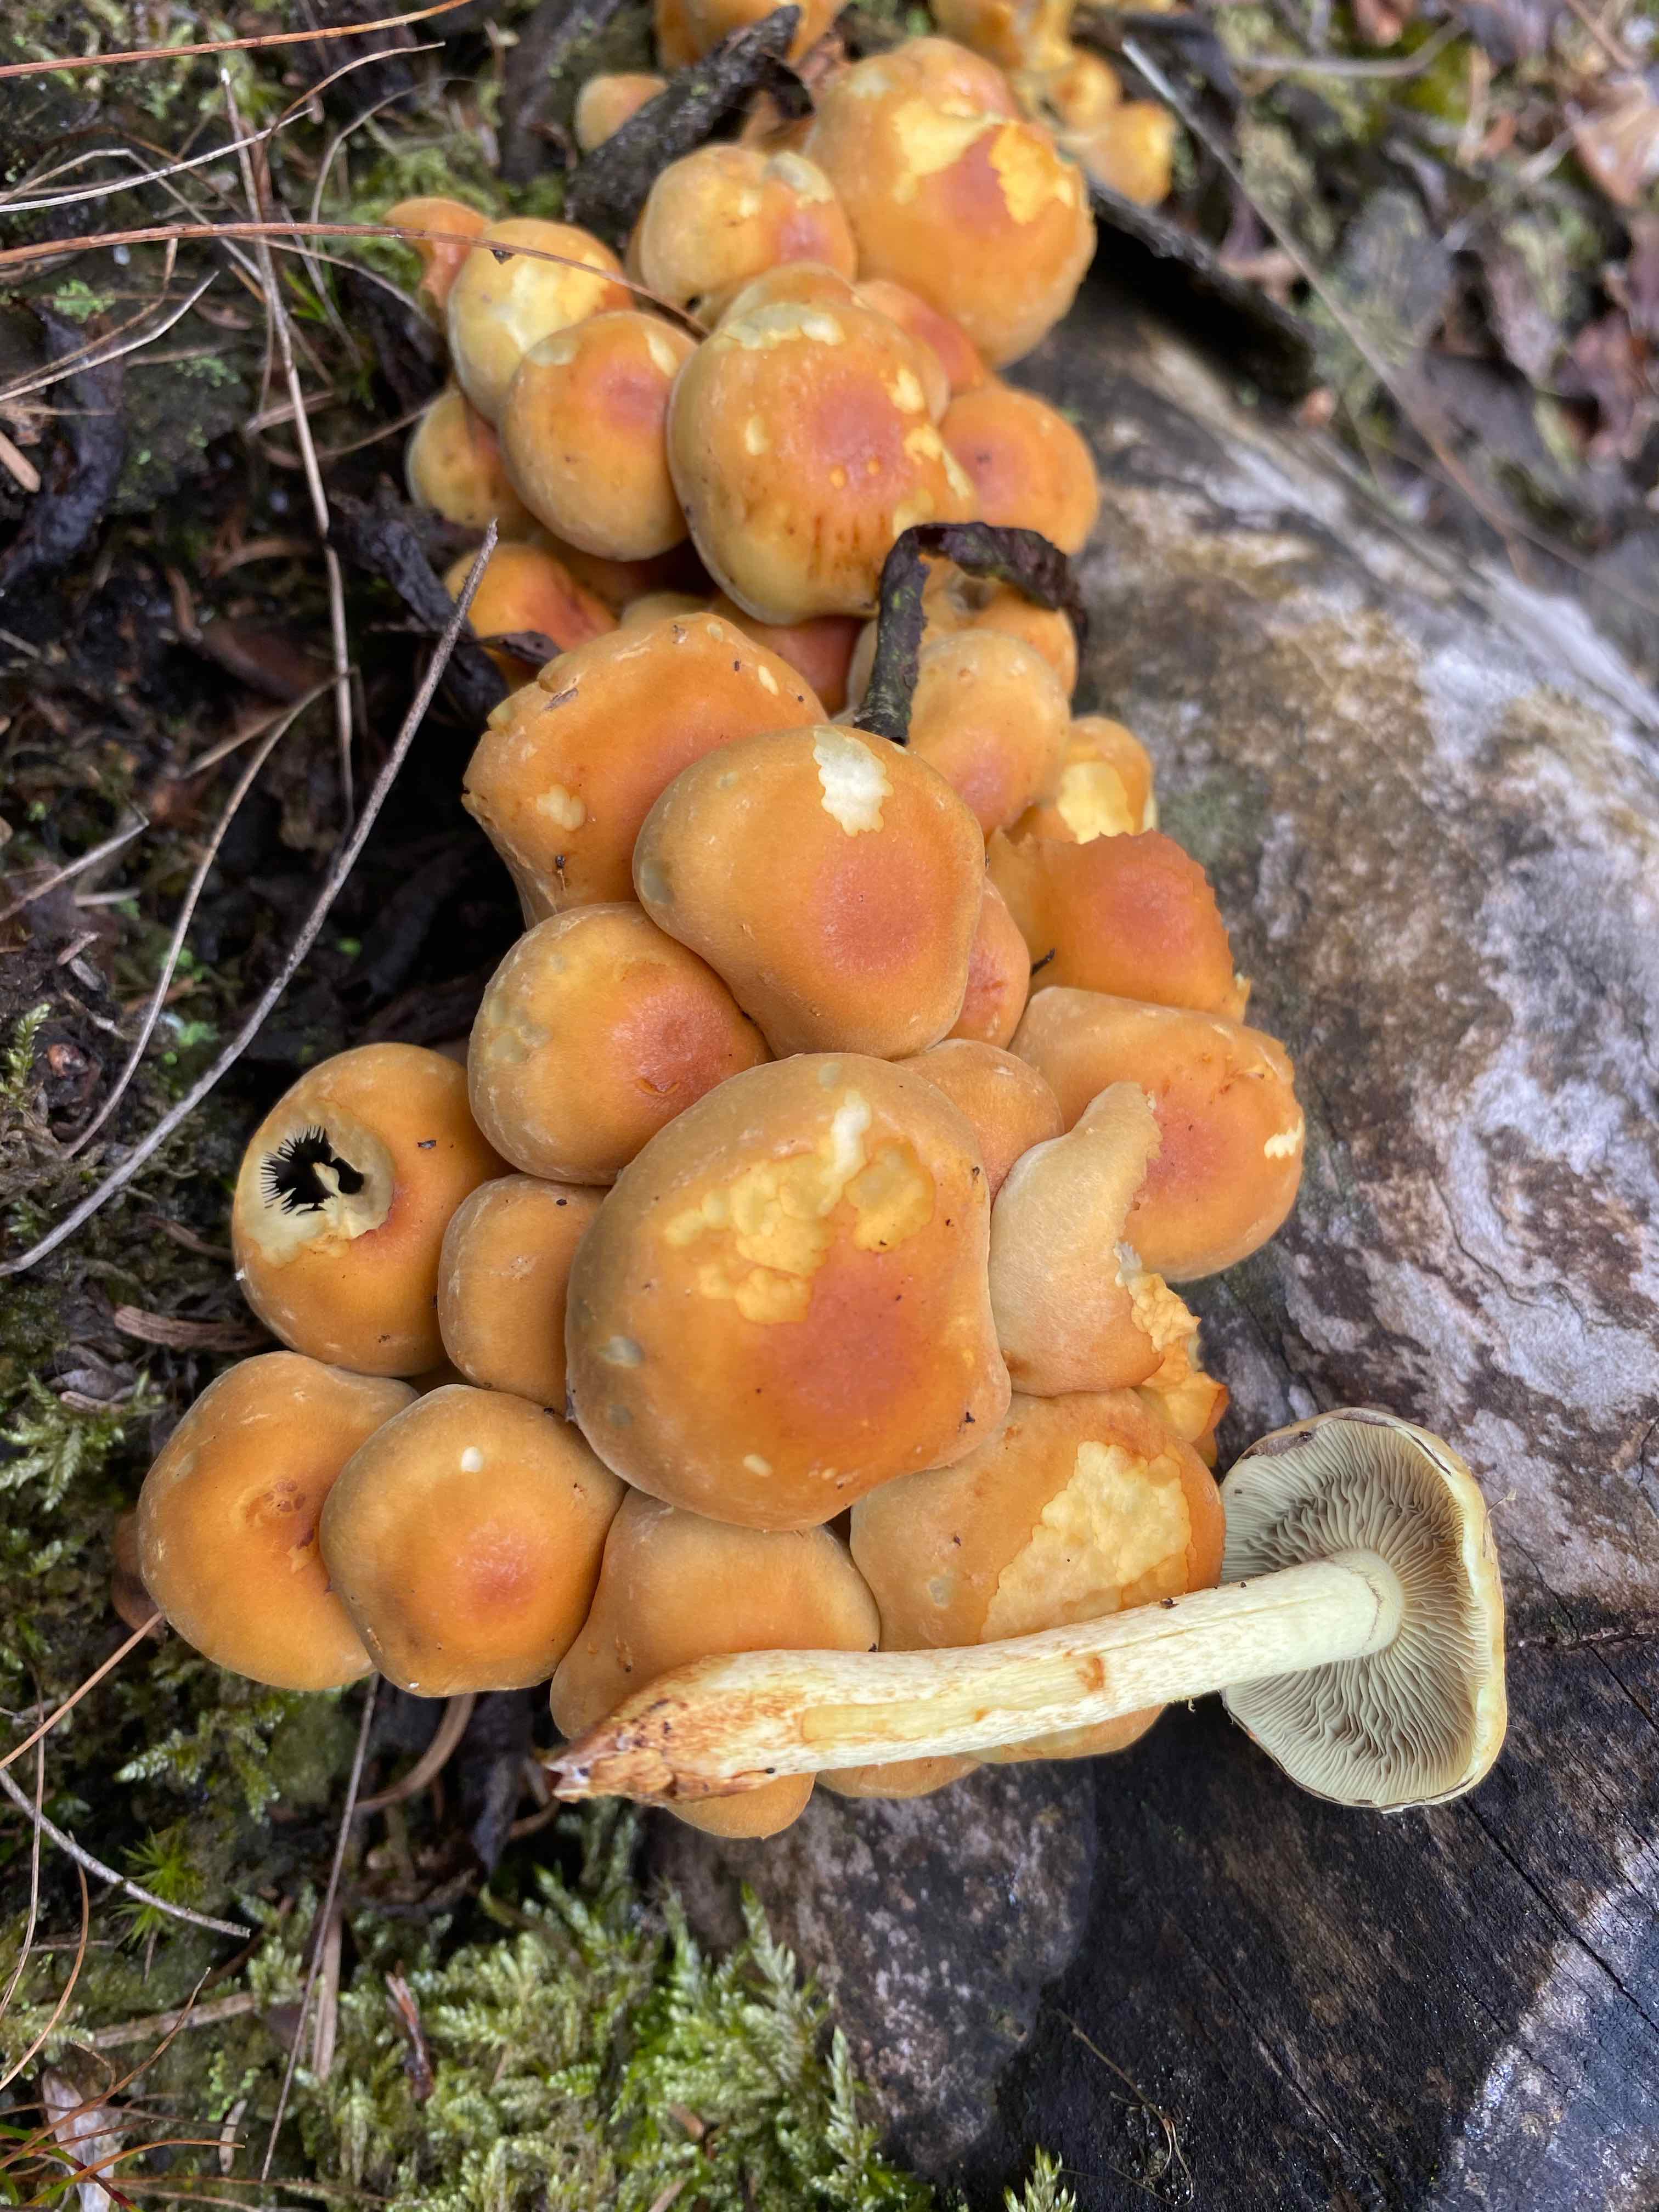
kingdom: Fungi
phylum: Basidiomycota
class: Agaricomycetes
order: Agaricales
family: Strophariaceae
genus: Hypholoma
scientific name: Hypholoma fasciculare
